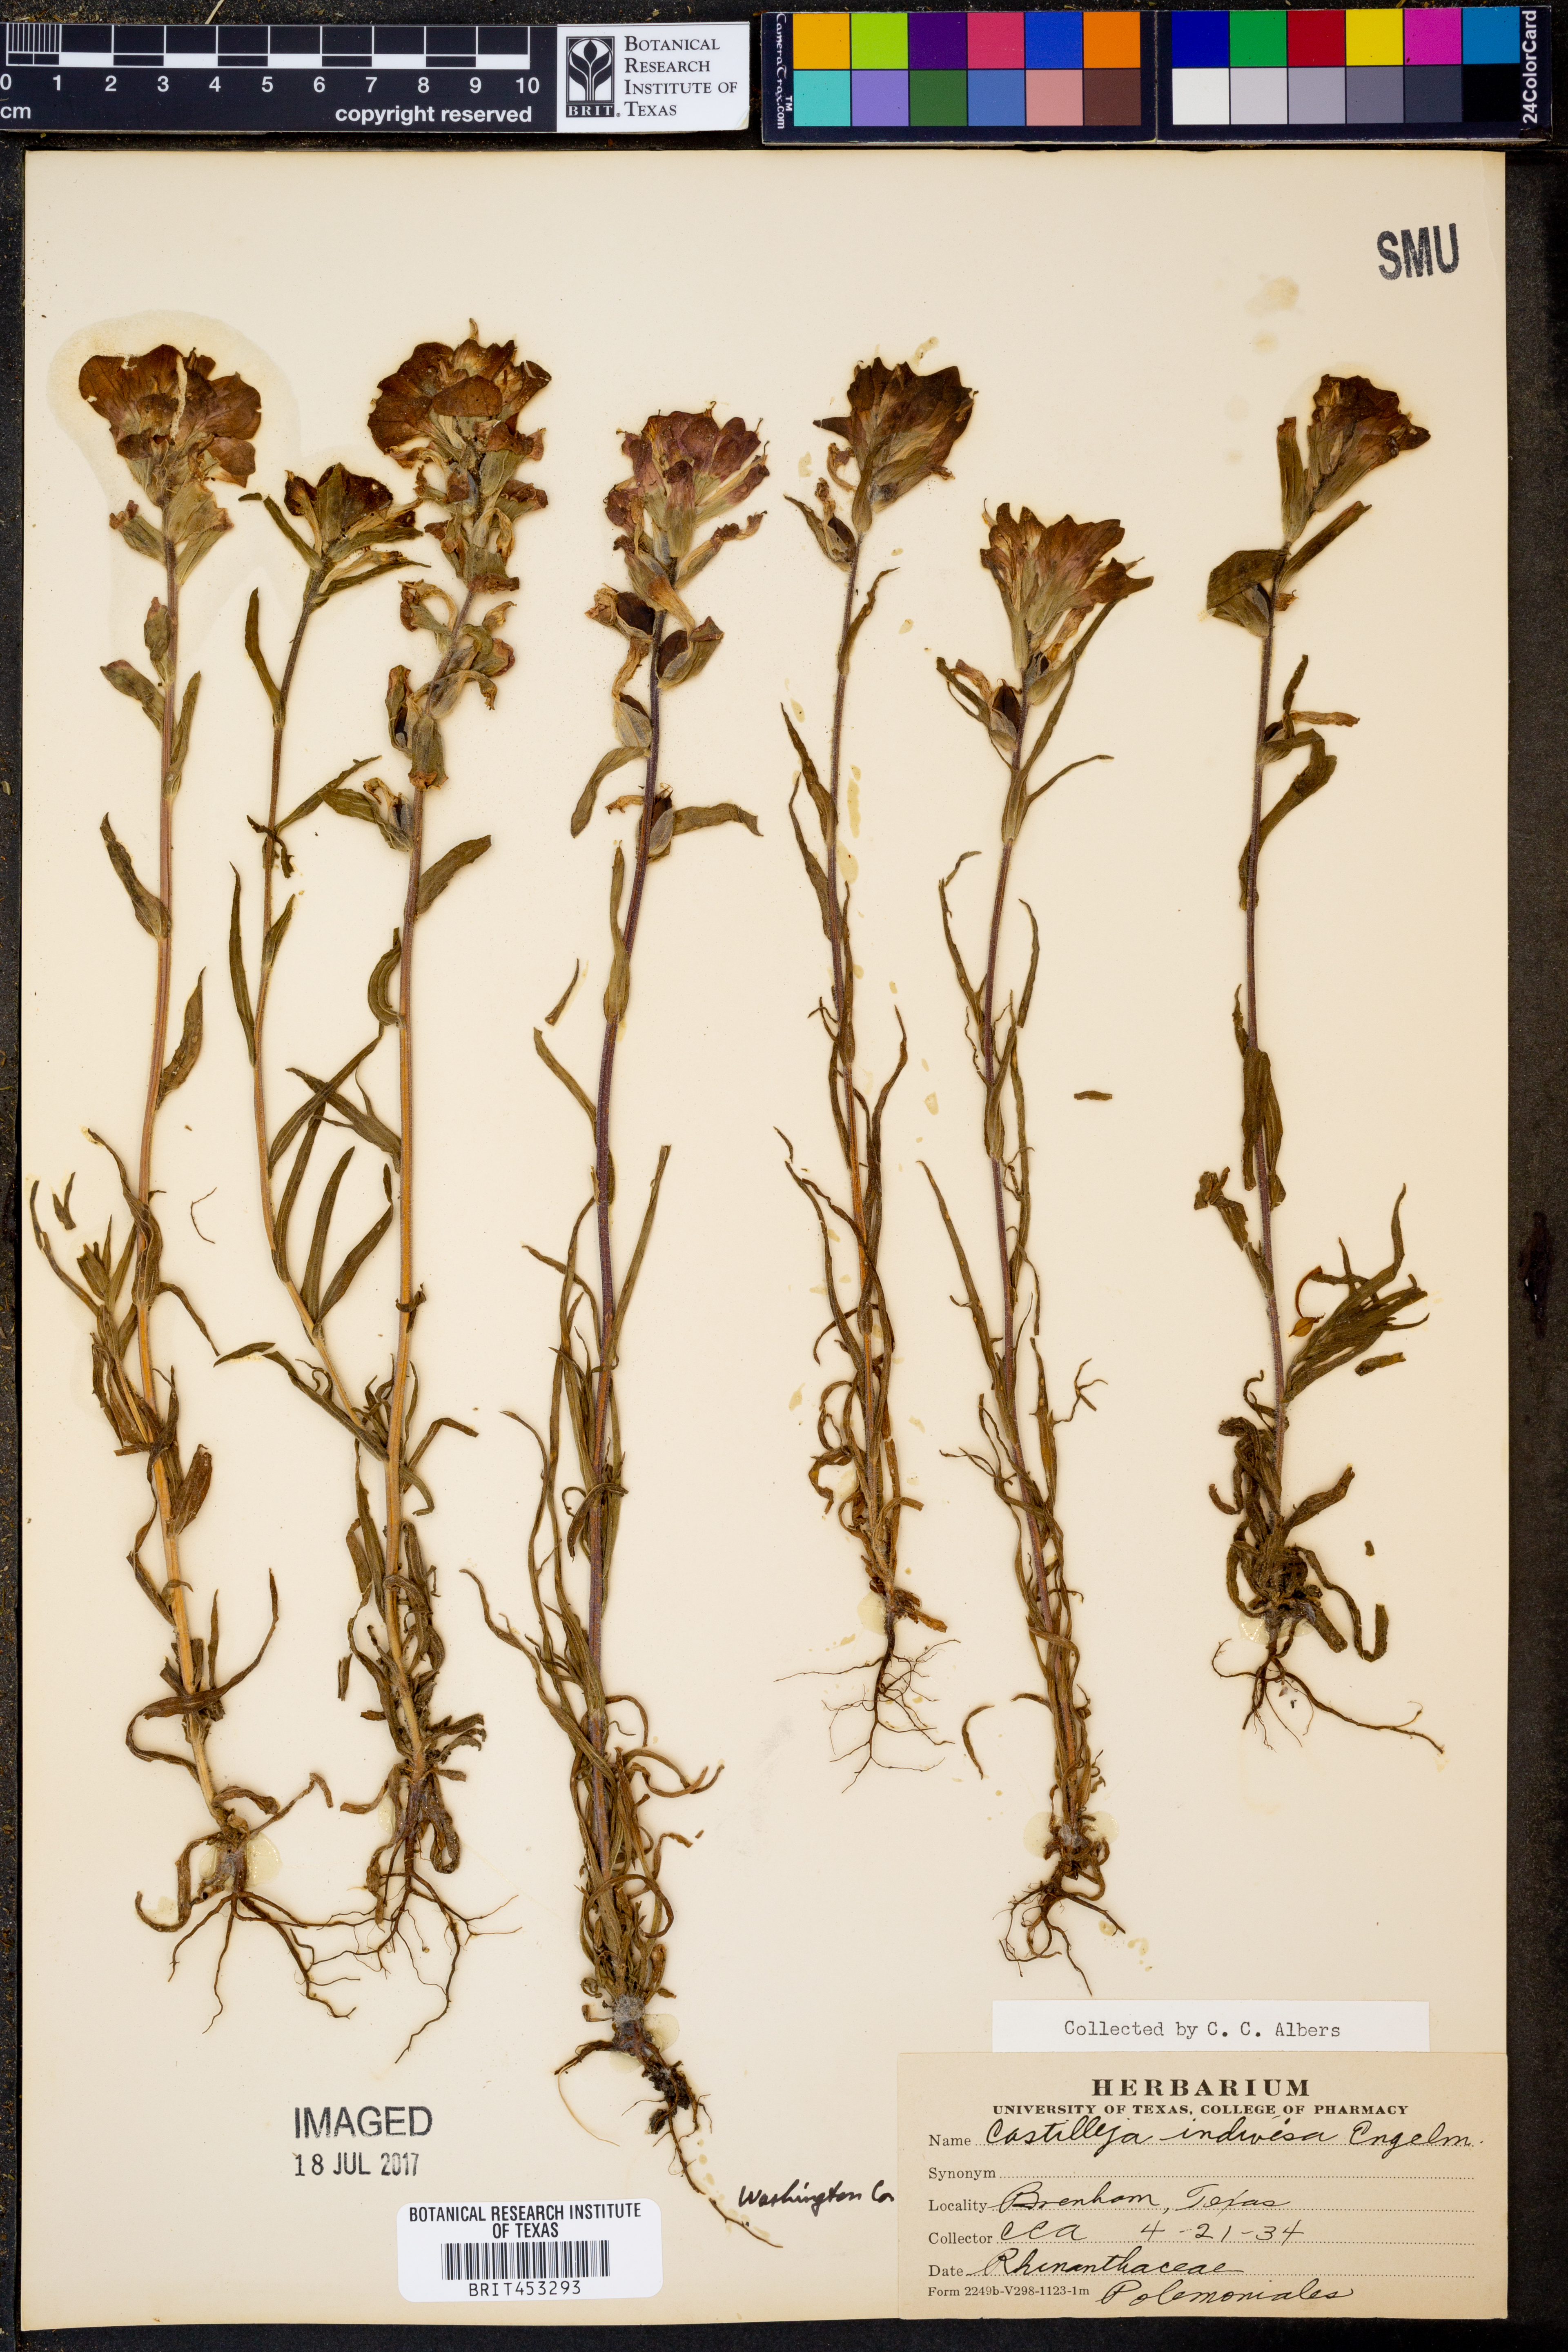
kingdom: Plantae
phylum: Tracheophyta
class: Magnoliopsida
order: Lamiales
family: Orobanchaceae
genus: Castilleja
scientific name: Castilleja indivisa
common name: Texas paintbrush
